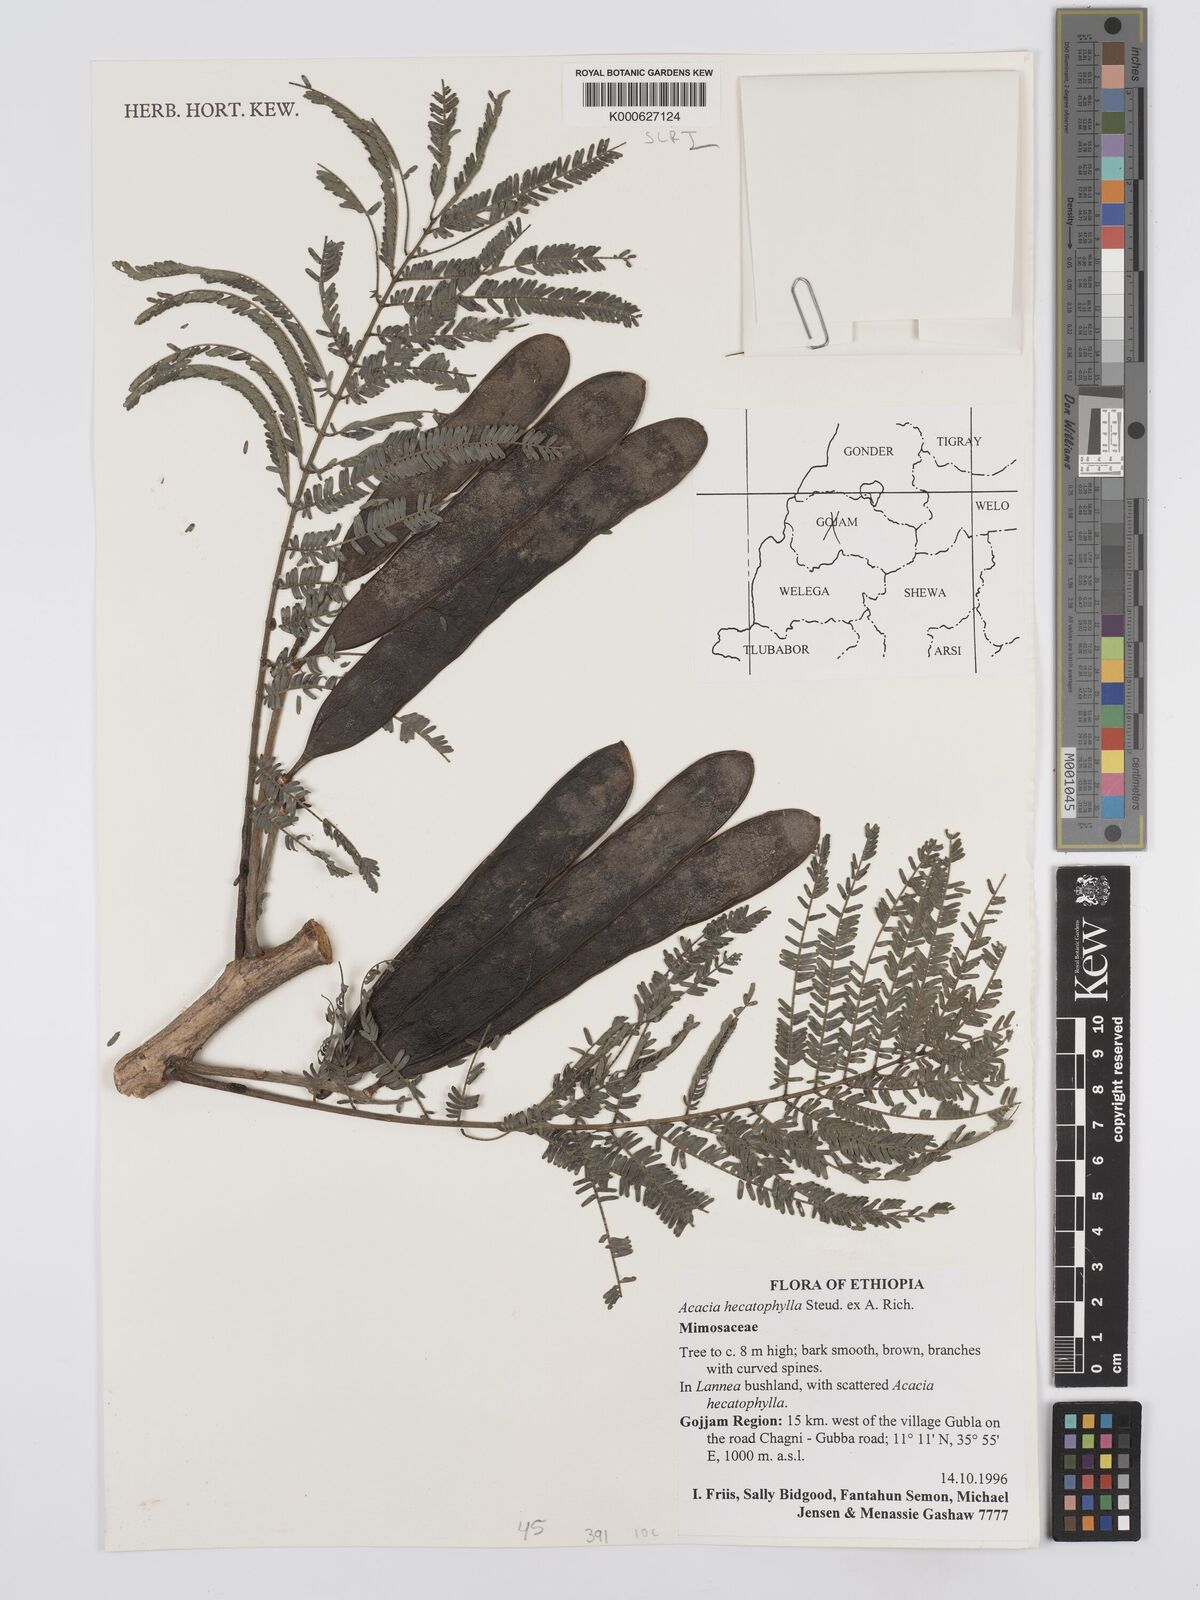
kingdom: Plantae
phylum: Tracheophyta
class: Magnoliopsida
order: Fabales
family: Fabaceae
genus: Senegalia
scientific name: Senegalia hecatophylla
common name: Long pod
